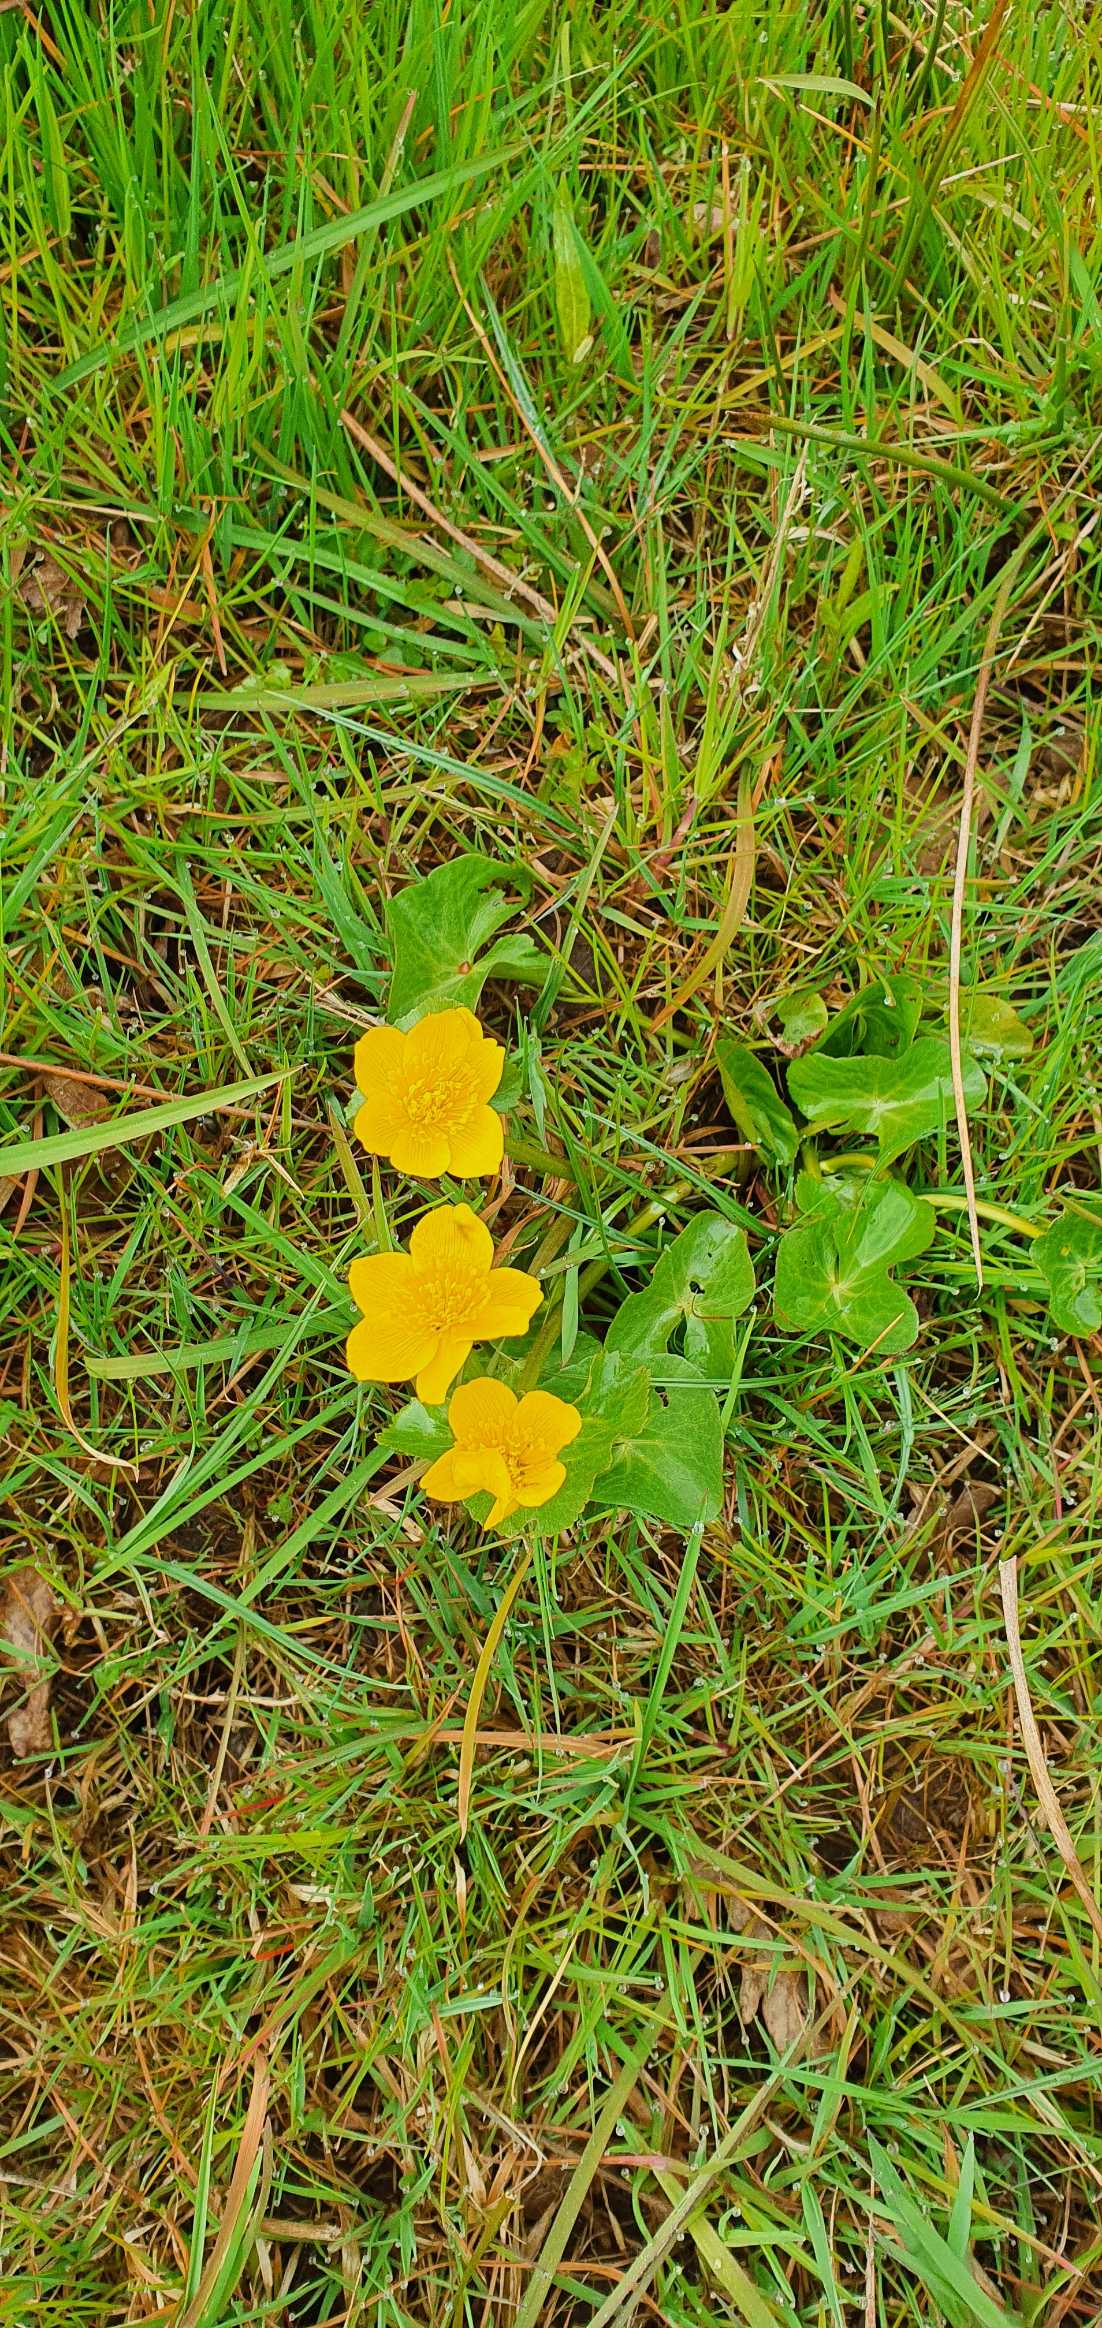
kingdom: Plantae
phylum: Tracheophyta
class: Magnoliopsida
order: Ranunculales
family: Ranunculaceae
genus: Caltha
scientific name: Caltha palustris
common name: Eng-kabbeleje
